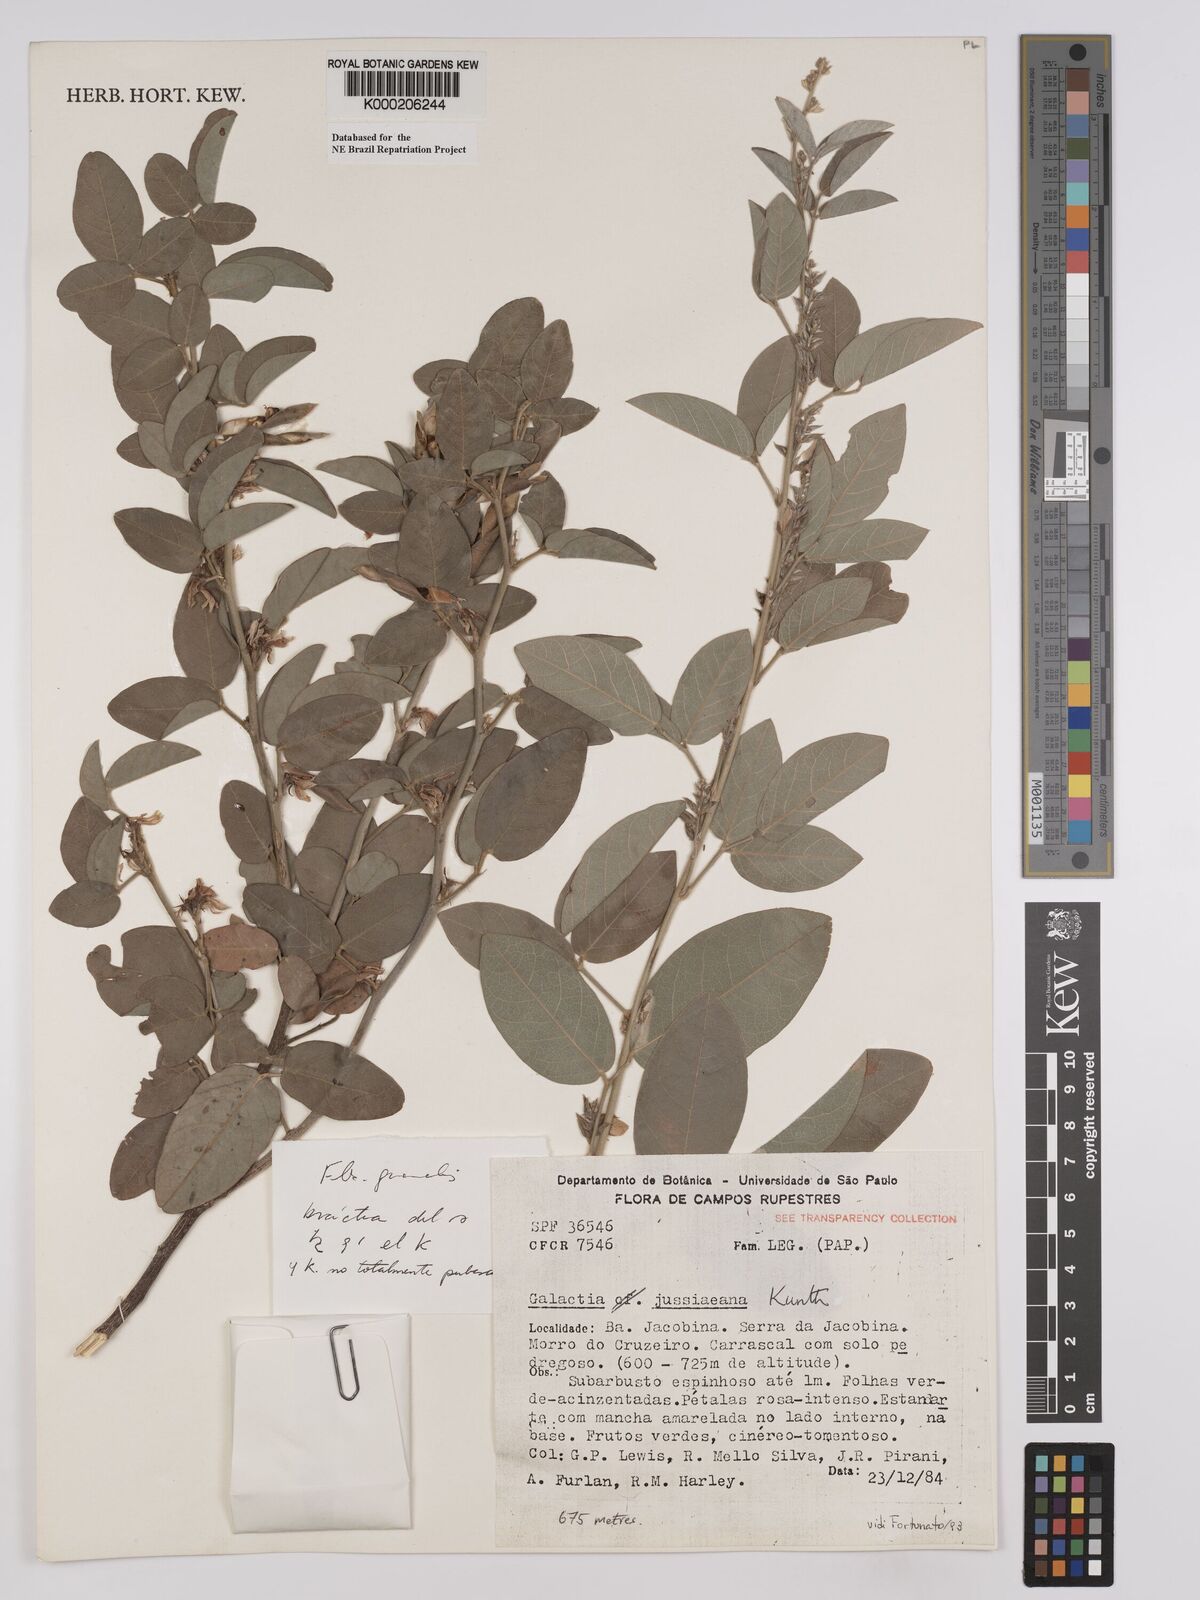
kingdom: Plantae
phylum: Tracheophyta
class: Magnoliopsida
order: Fabales
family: Fabaceae
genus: Galactia
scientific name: Galactia jussiaeana
